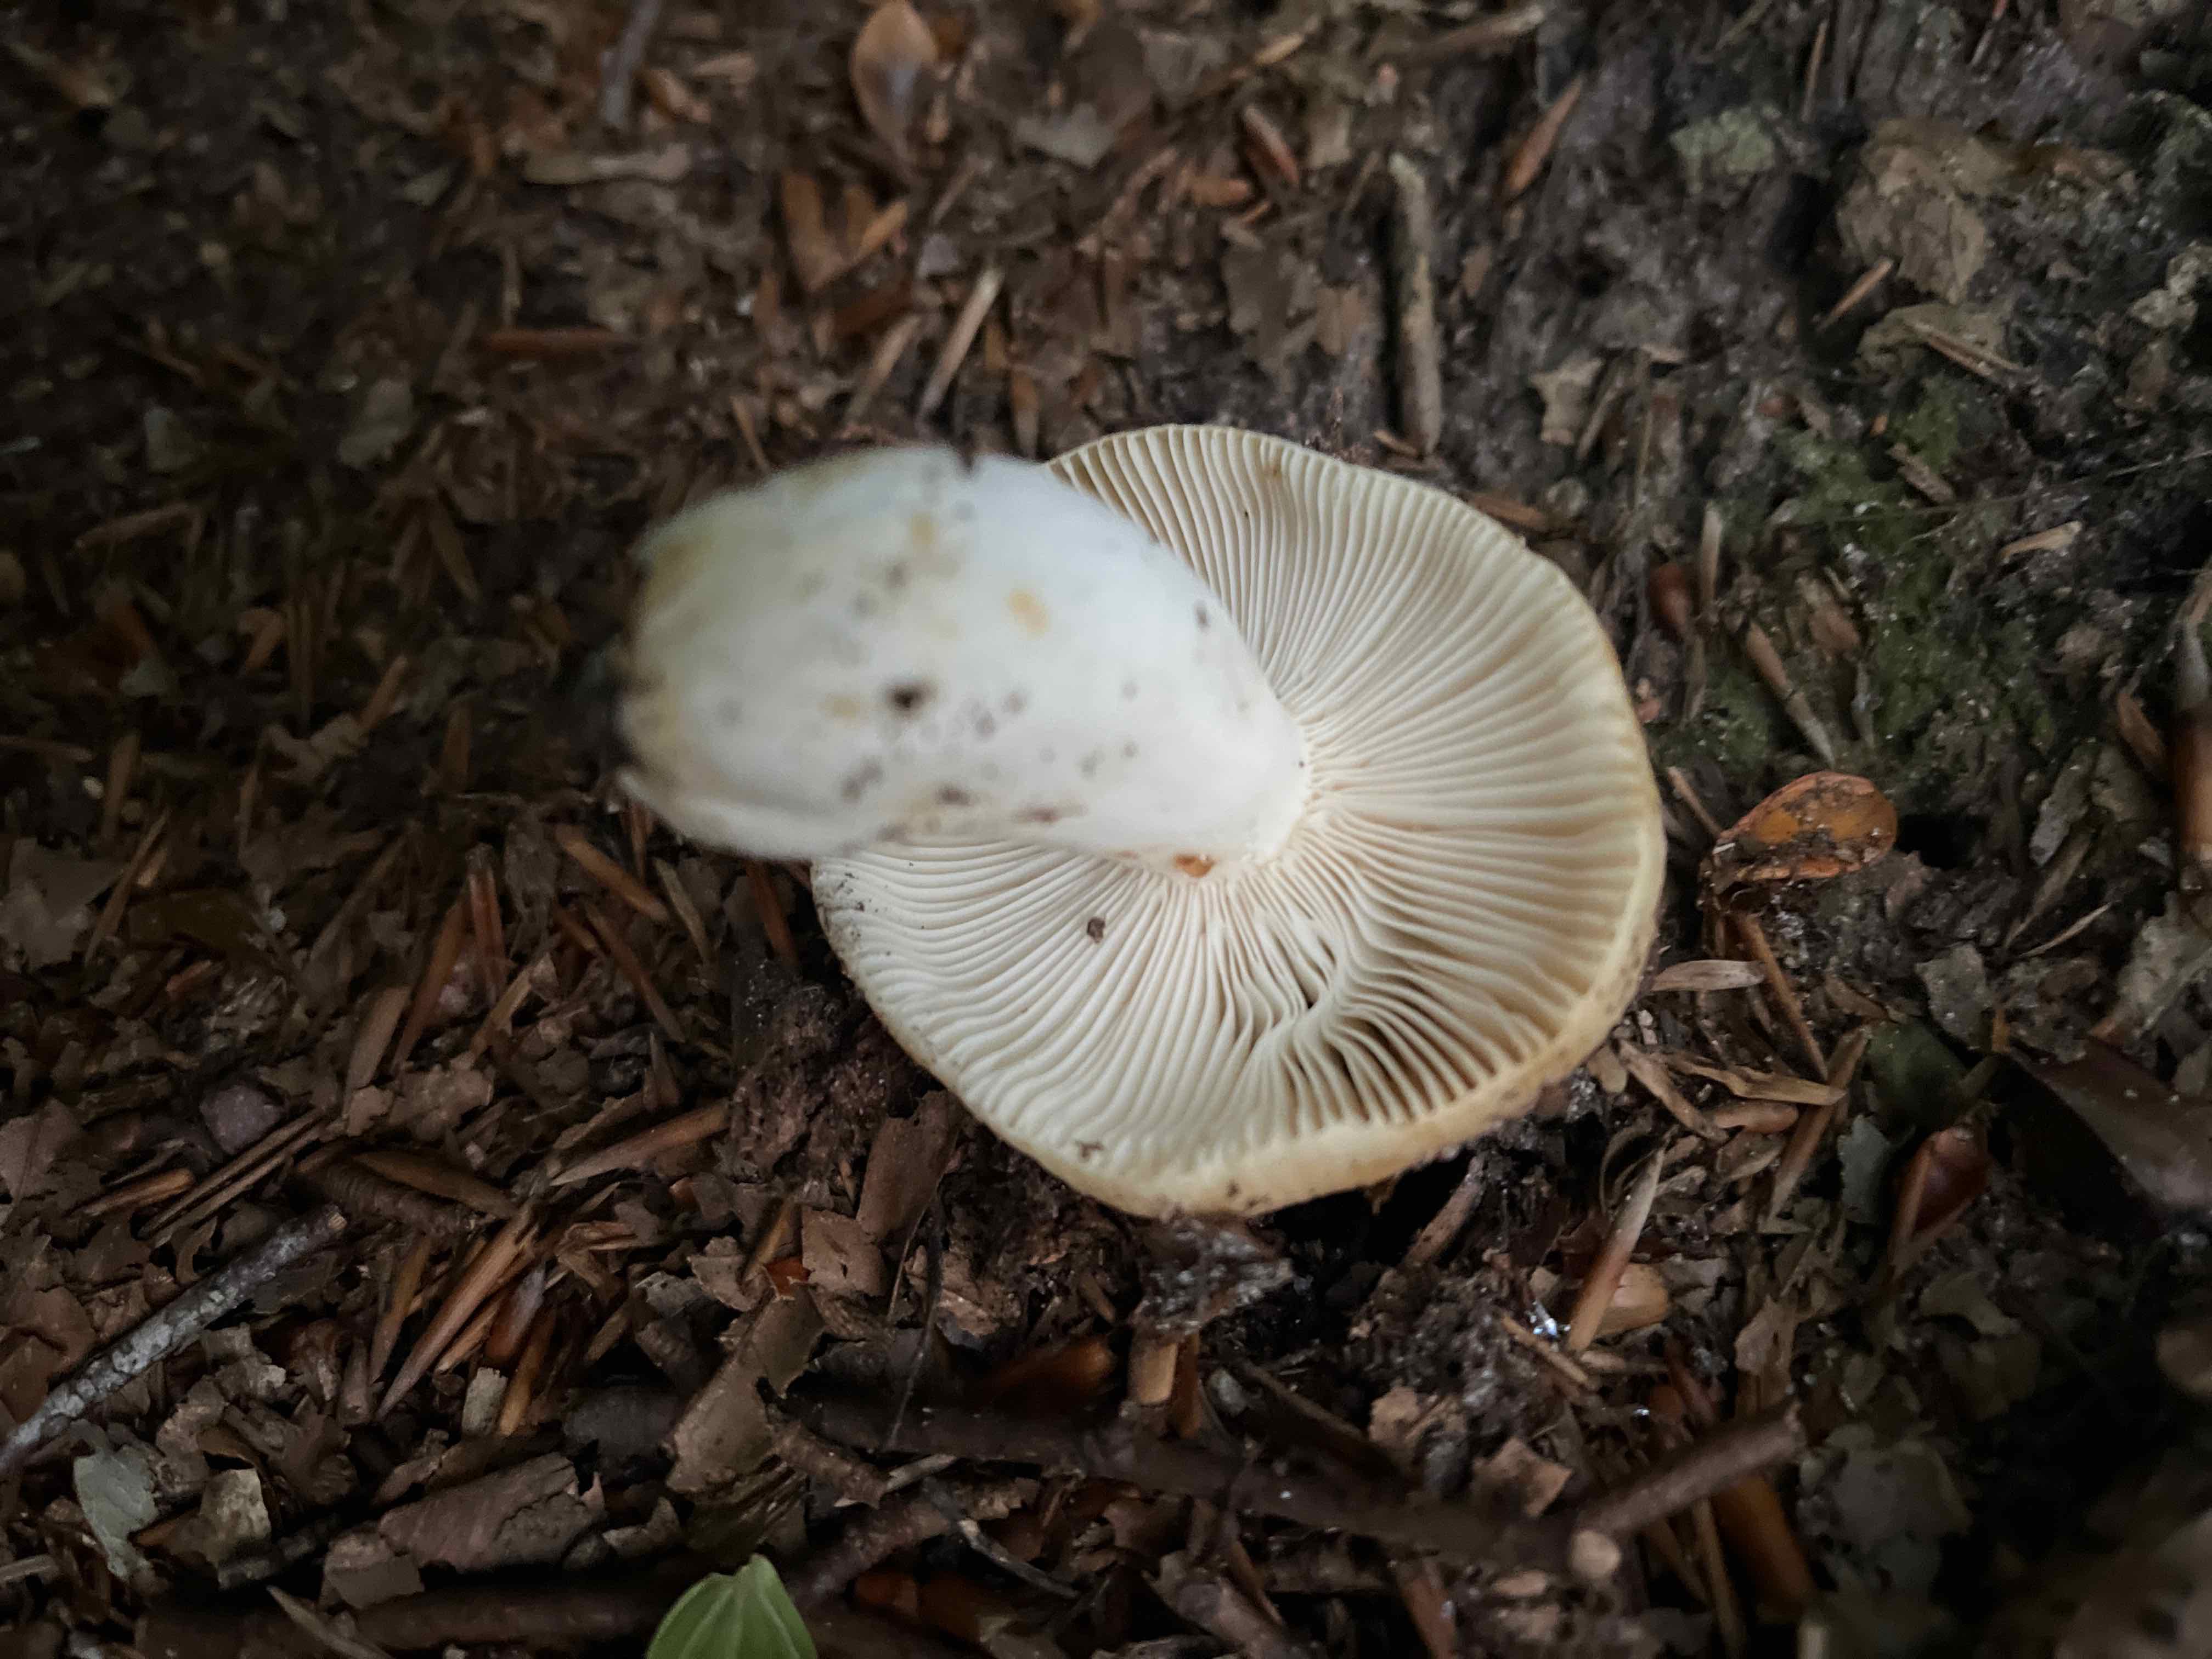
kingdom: Fungi
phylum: Basidiomycota
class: Agaricomycetes
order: Russulales
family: Russulaceae
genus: Russula
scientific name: Russula ochroleuca
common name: okkergul skørhat
